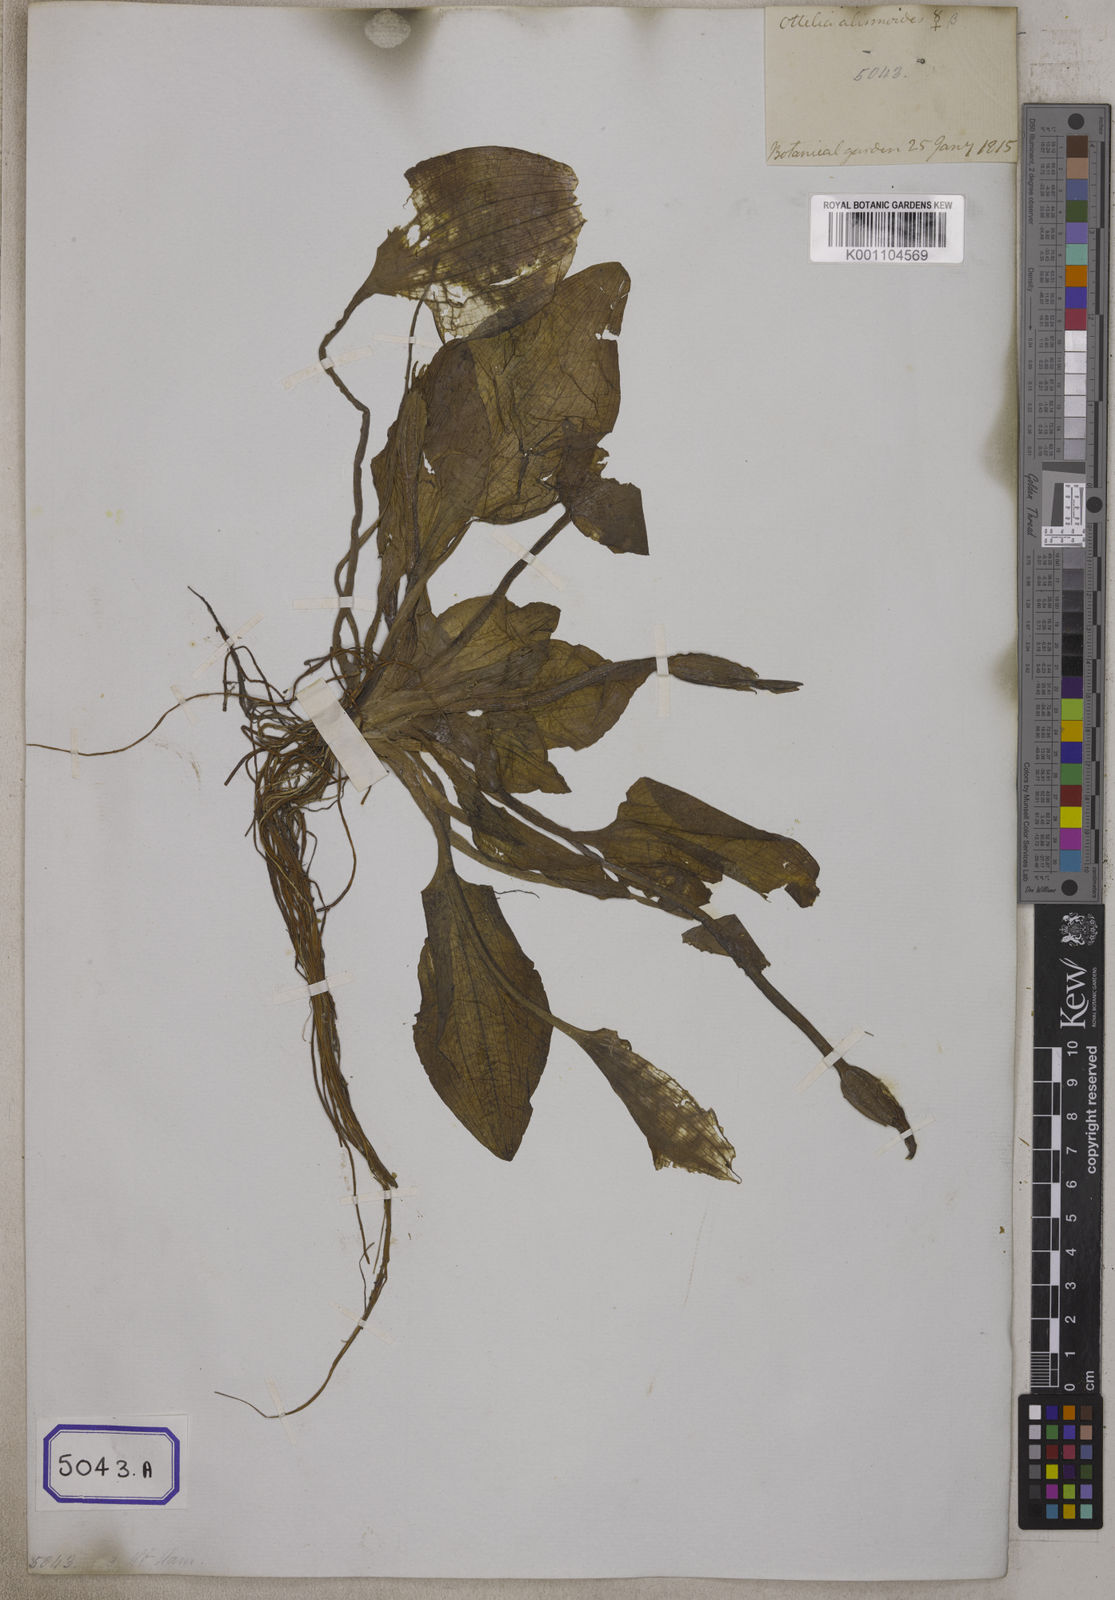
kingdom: Plantae
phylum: Tracheophyta
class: Liliopsida
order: Alismatales
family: Hydrocharitaceae
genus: Ottelia
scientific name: Ottelia alismoides
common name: Duck-lettuce
